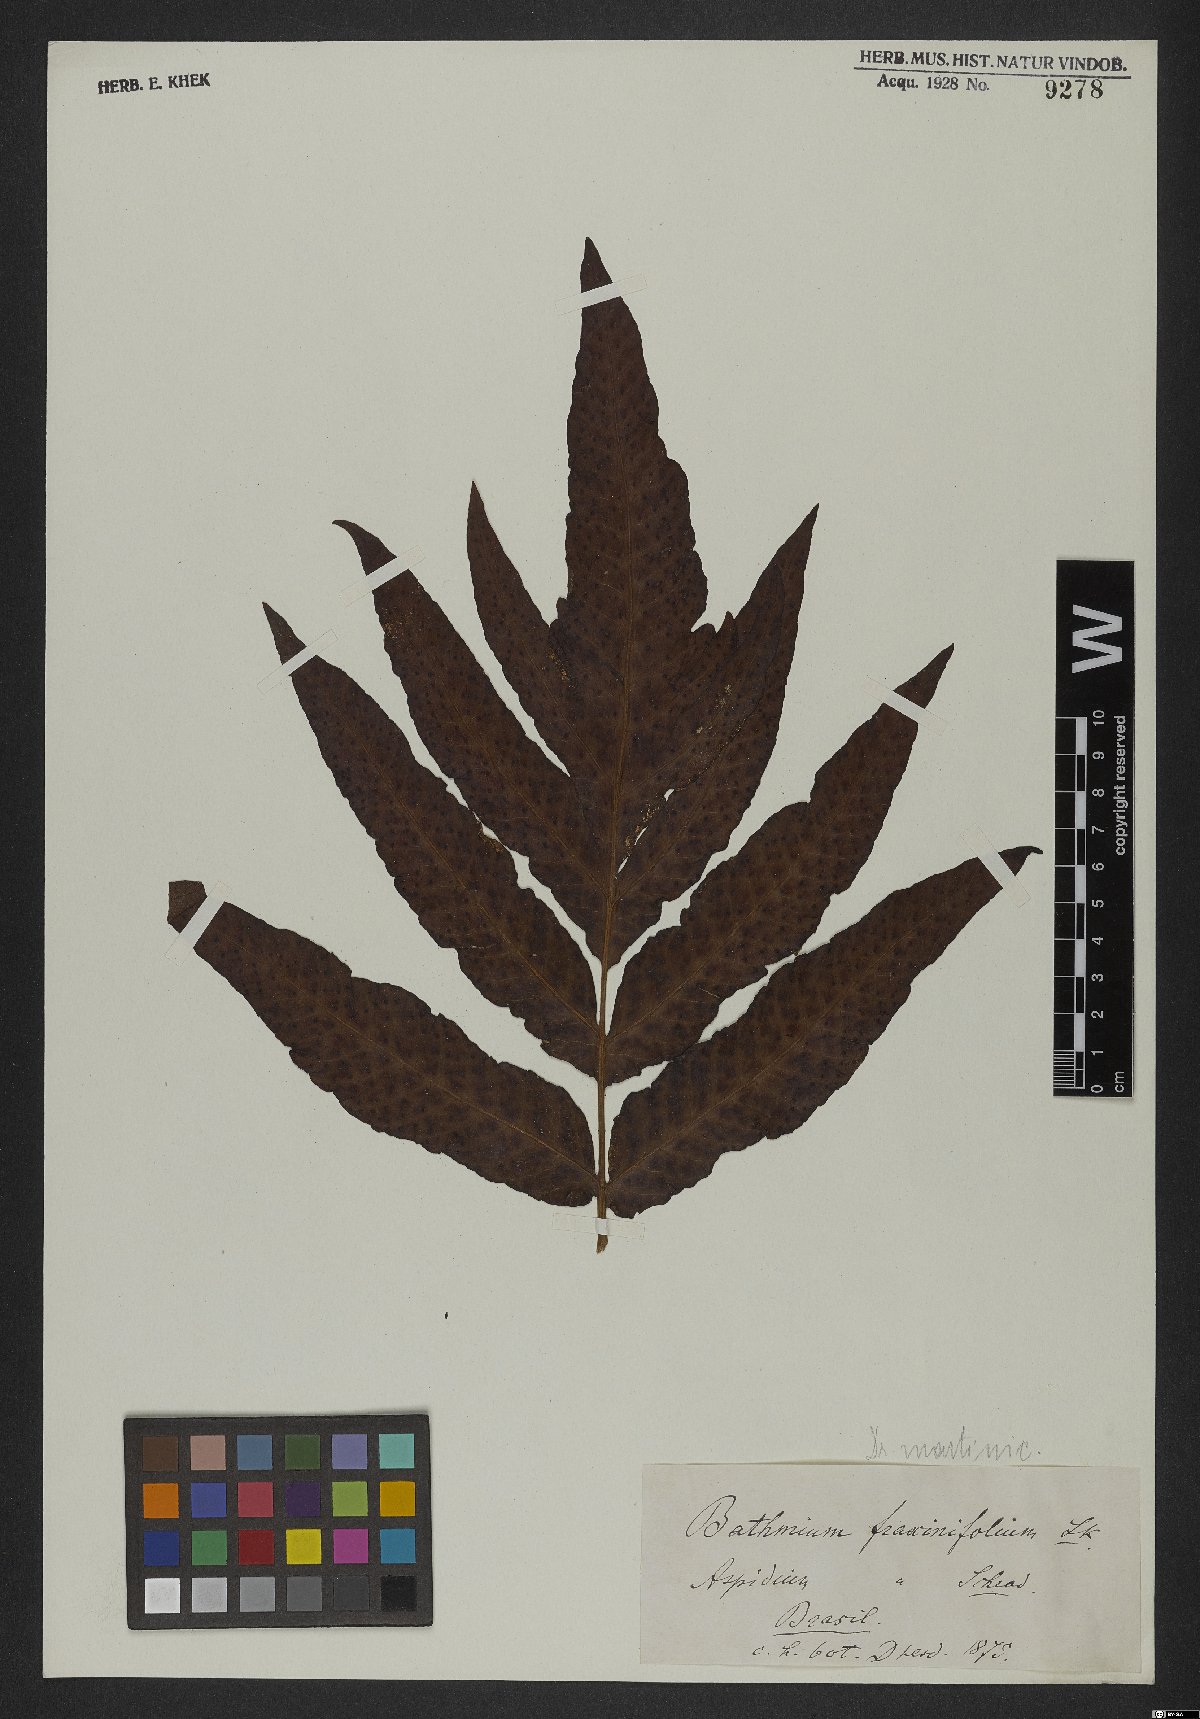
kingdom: Plantae
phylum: Tracheophyta
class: Polypodiopsida
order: Polypodiales
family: Tectariaceae
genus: Tectaria
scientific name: Tectaria incisa
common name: Incised halberd fern
